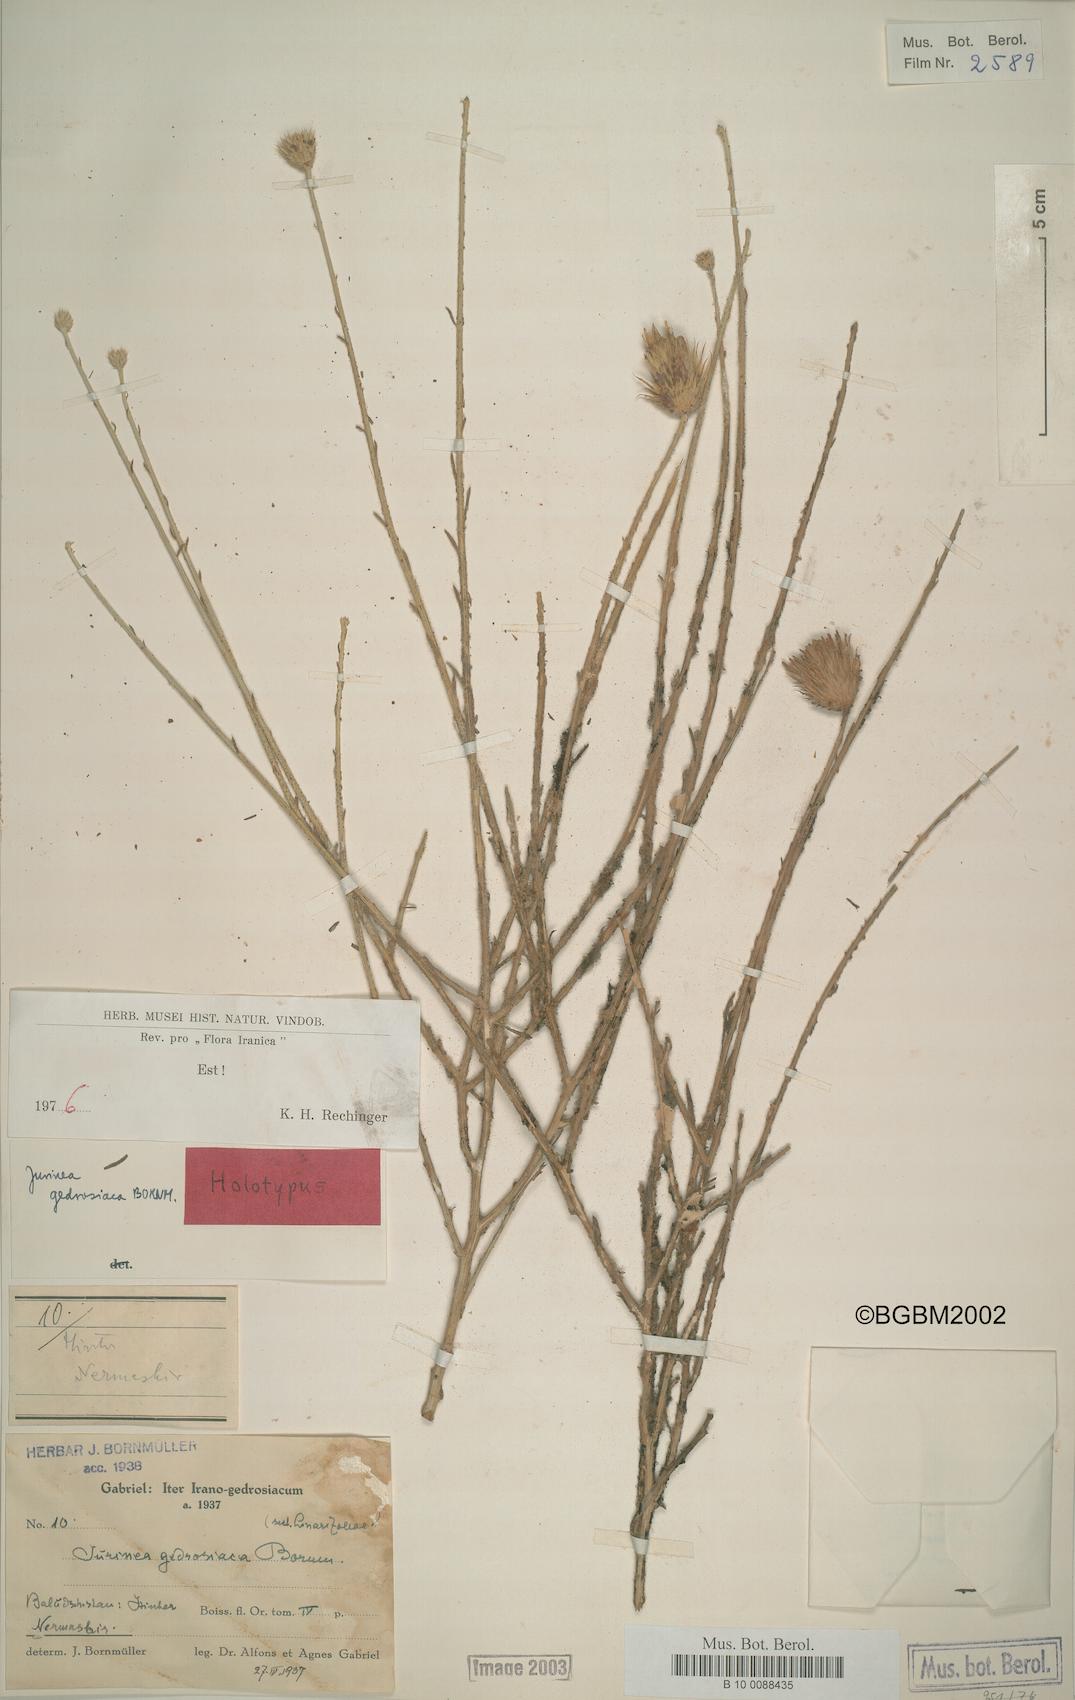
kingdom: Plantae
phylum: Tracheophyta
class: Magnoliopsida
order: Asterales
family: Asteraceae
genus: Tricholepis
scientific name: Tricholepis gedrosiaca
